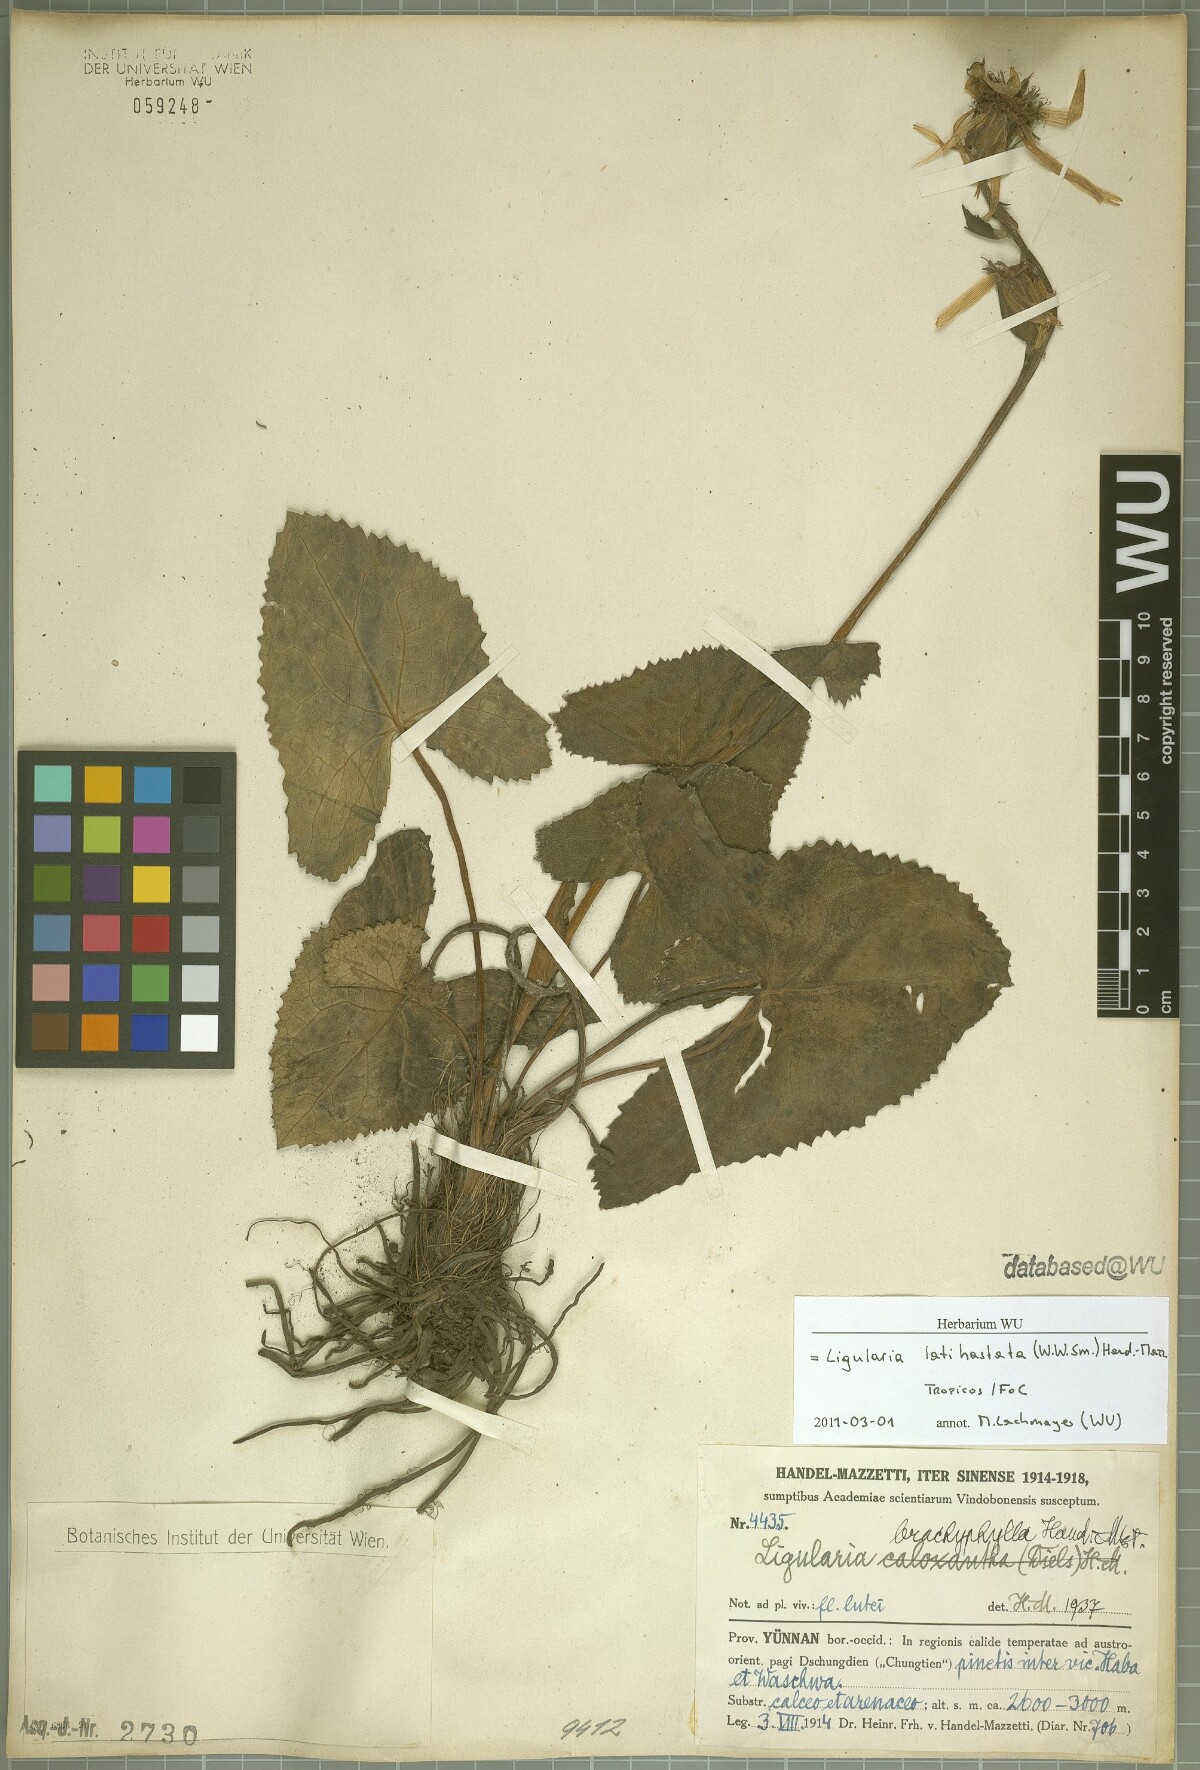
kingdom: Plantae
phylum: Tracheophyta
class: Magnoliopsida
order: Asterales
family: Asteraceae
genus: Ligularia
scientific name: Ligularia latihastata
